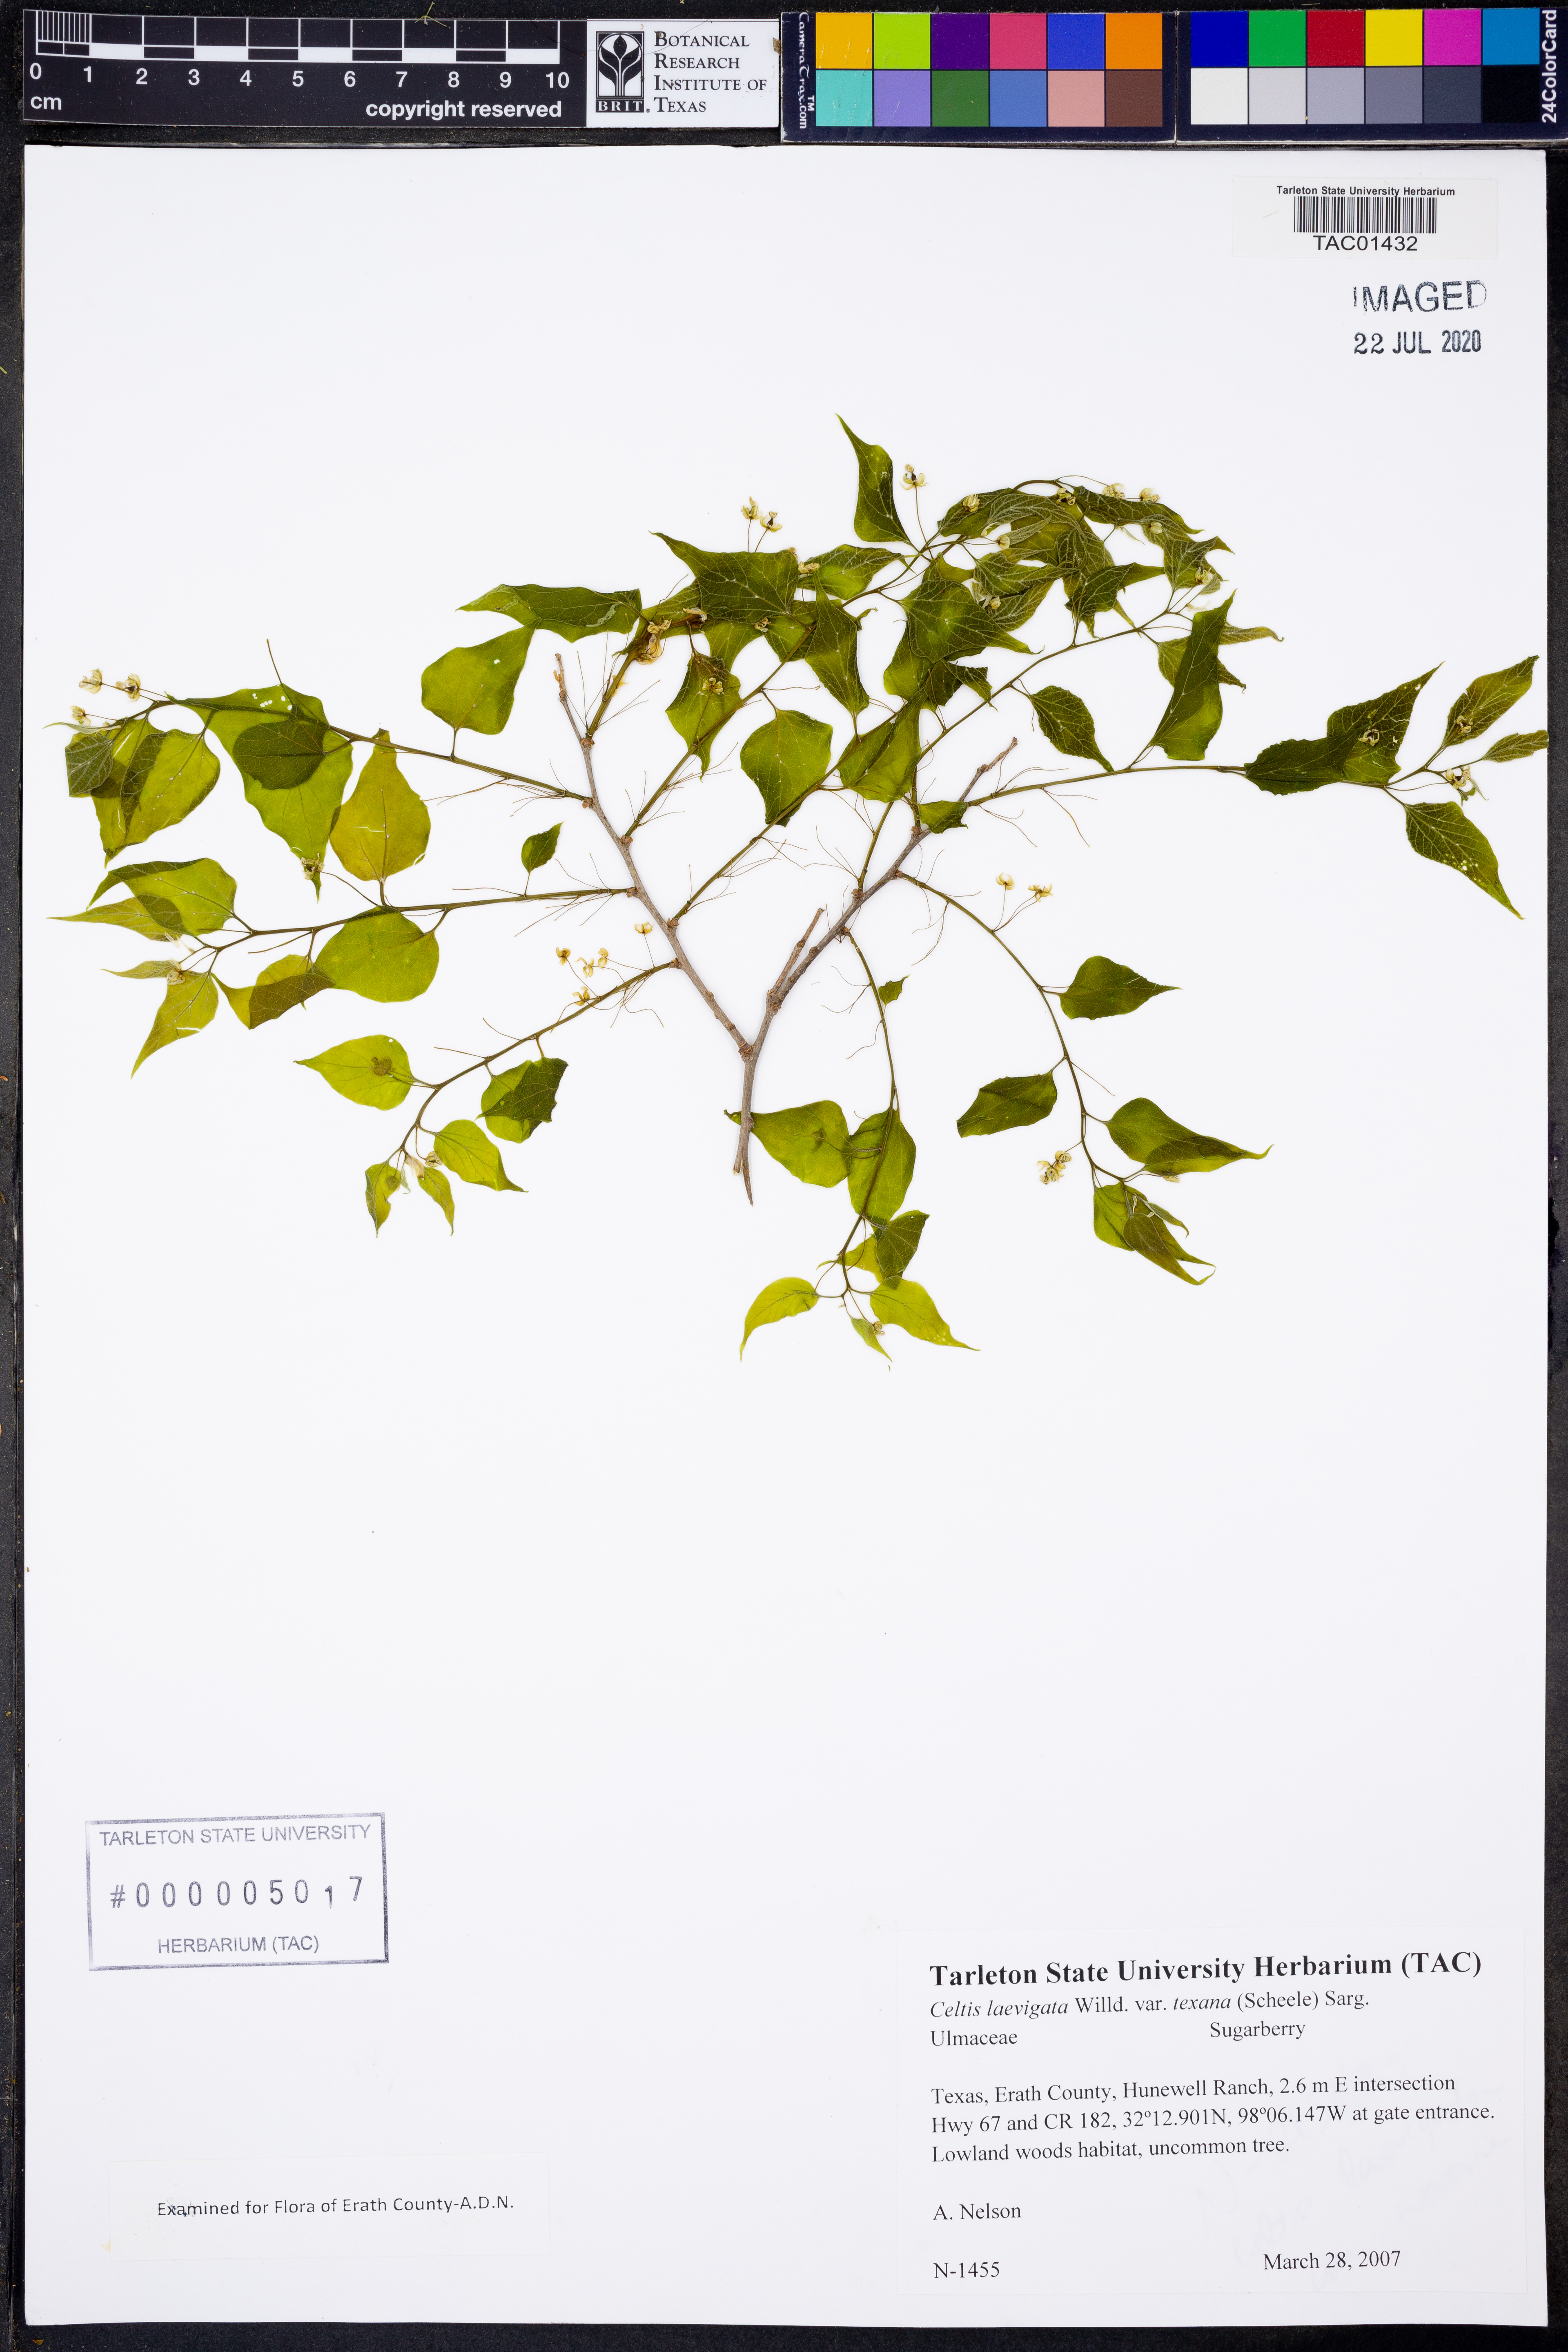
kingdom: Plantae
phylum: Tracheophyta
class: Magnoliopsida
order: Rosales
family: Cannabaceae
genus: Celtis
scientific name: Celtis laevigata
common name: Sugarberry
